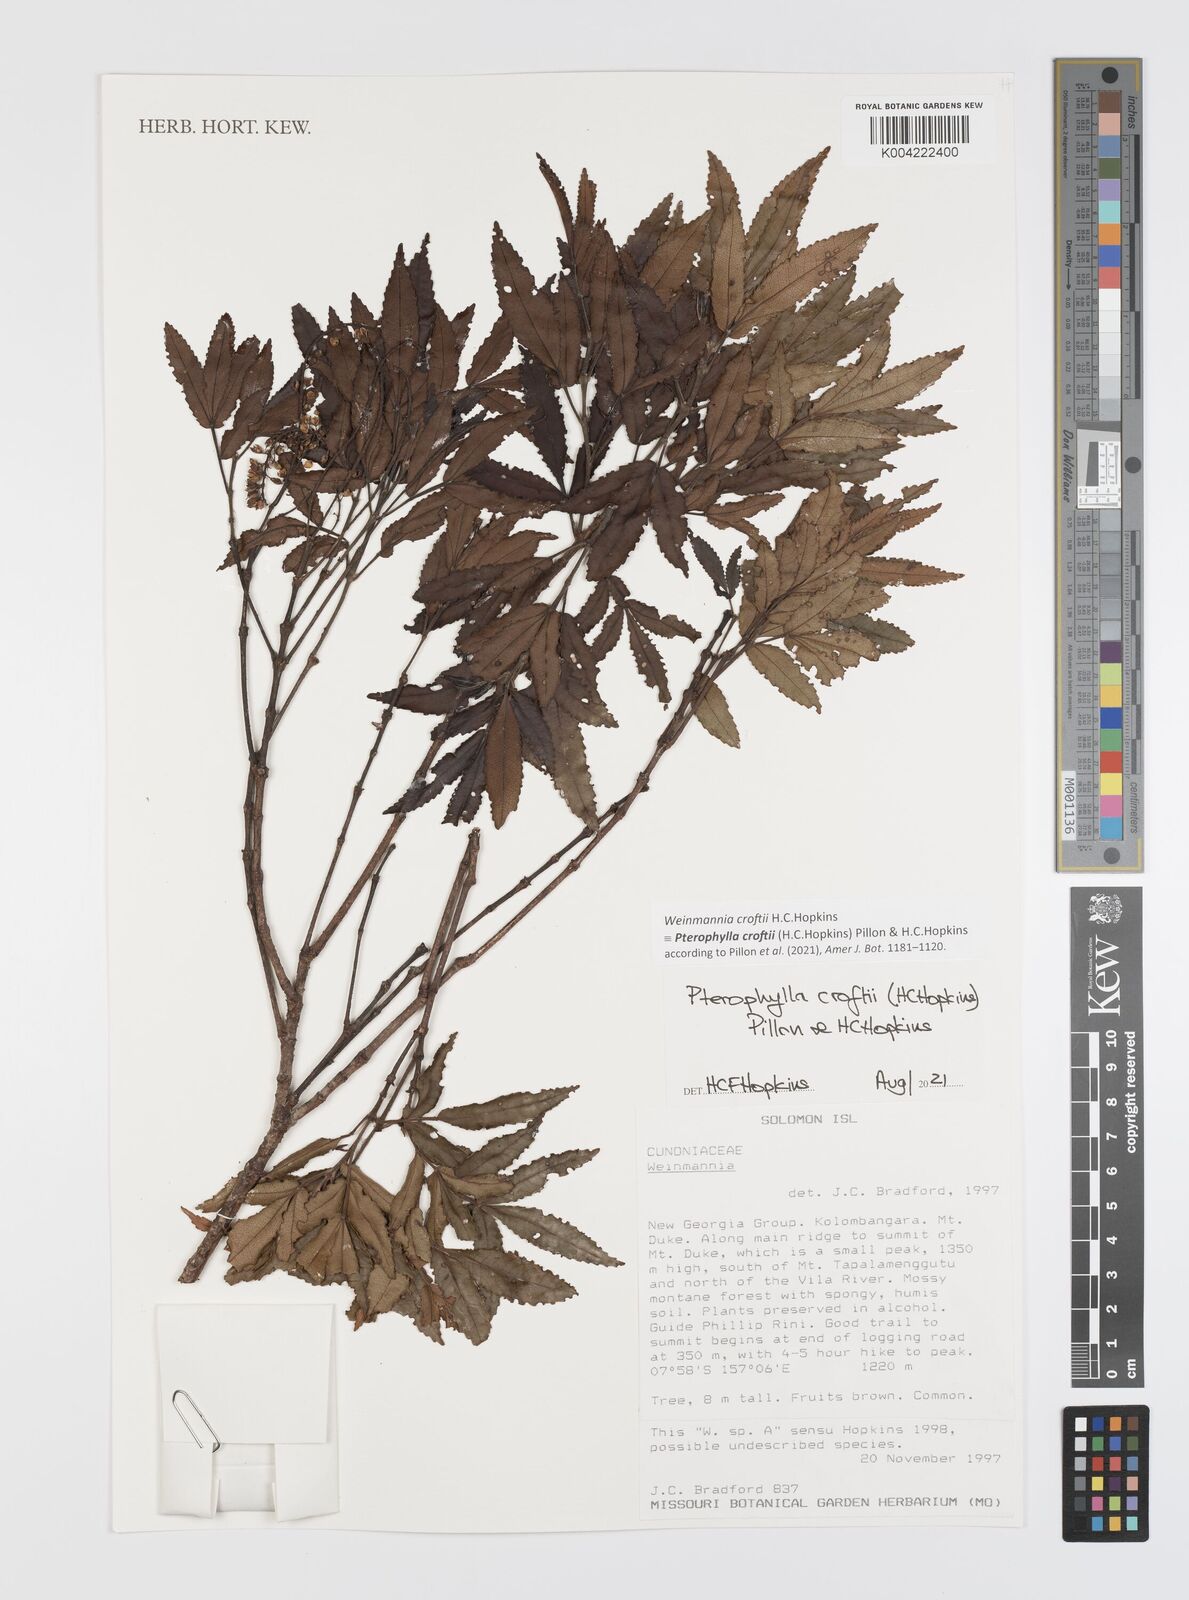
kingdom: Plantae
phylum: Tracheophyta
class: Magnoliopsida
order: Oxalidales
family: Cunoniaceae
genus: Pterophylla
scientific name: Pterophylla croftii
